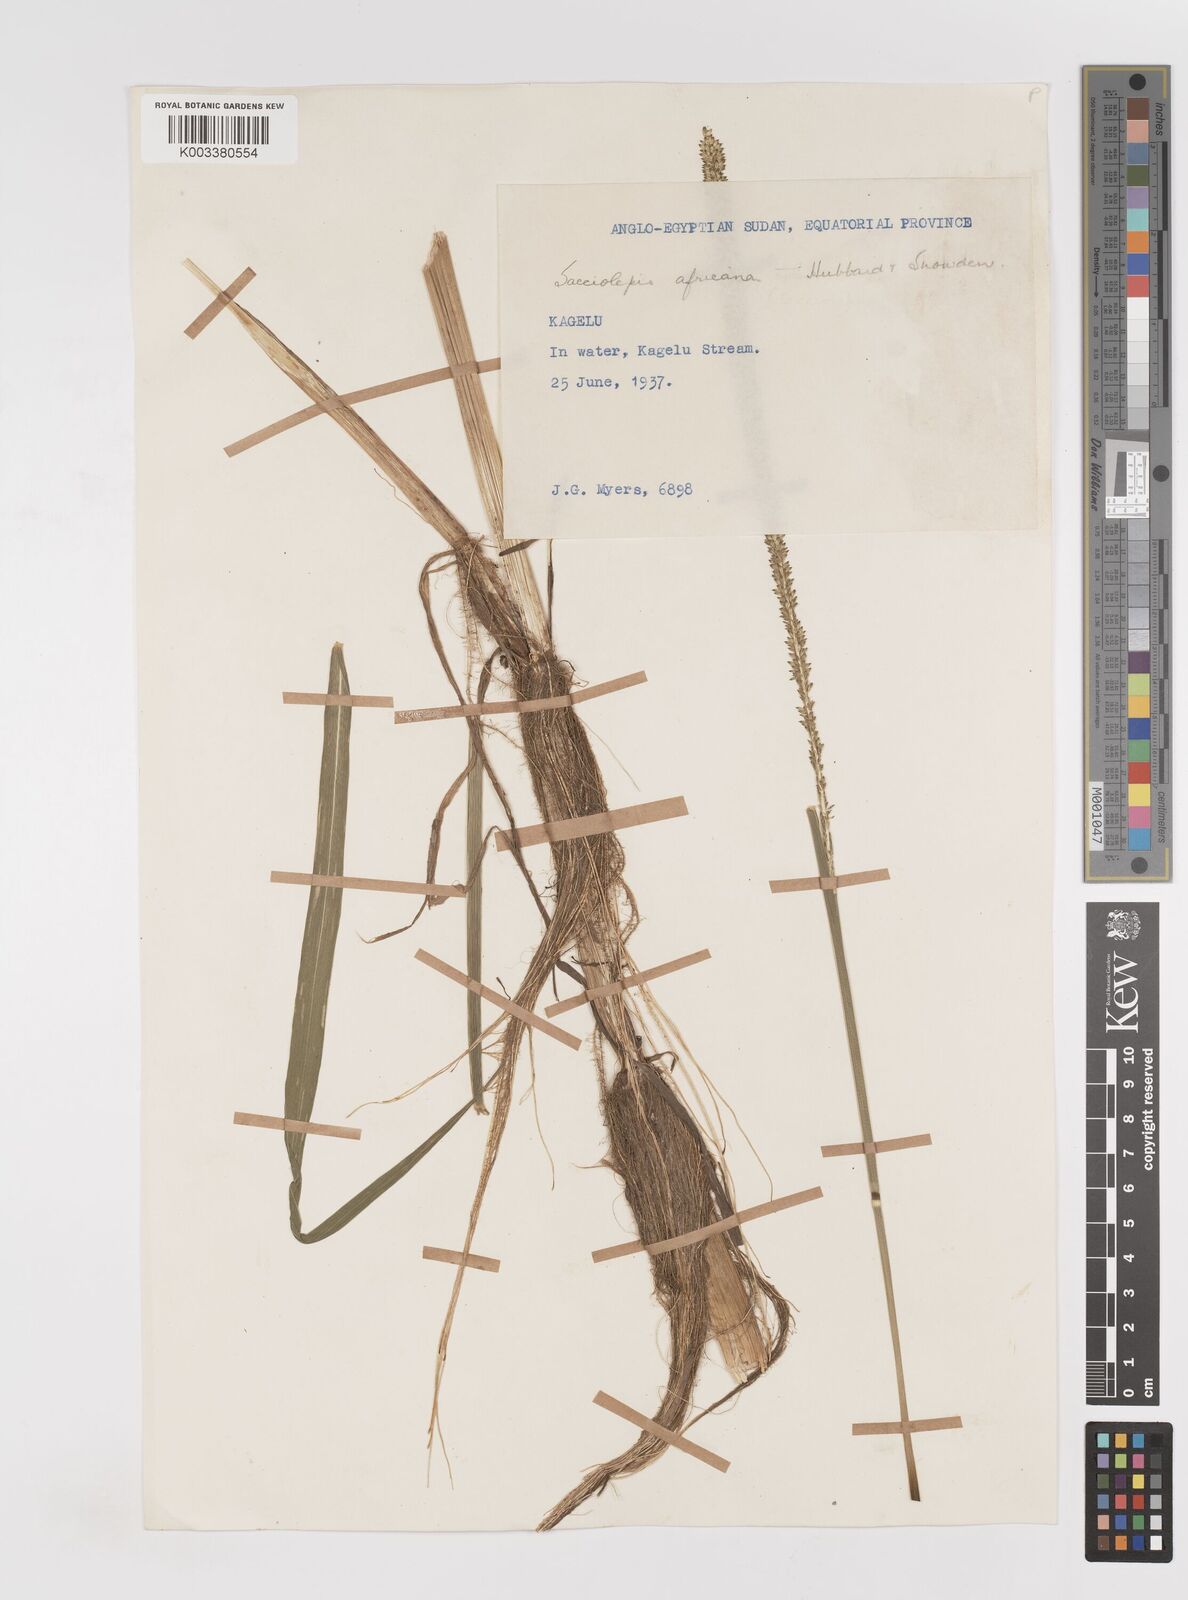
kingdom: Plantae
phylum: Tracheophyta
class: Liliopsida
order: Poales
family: Poaceae
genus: Sacciolepis
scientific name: Sacciolepis africana
